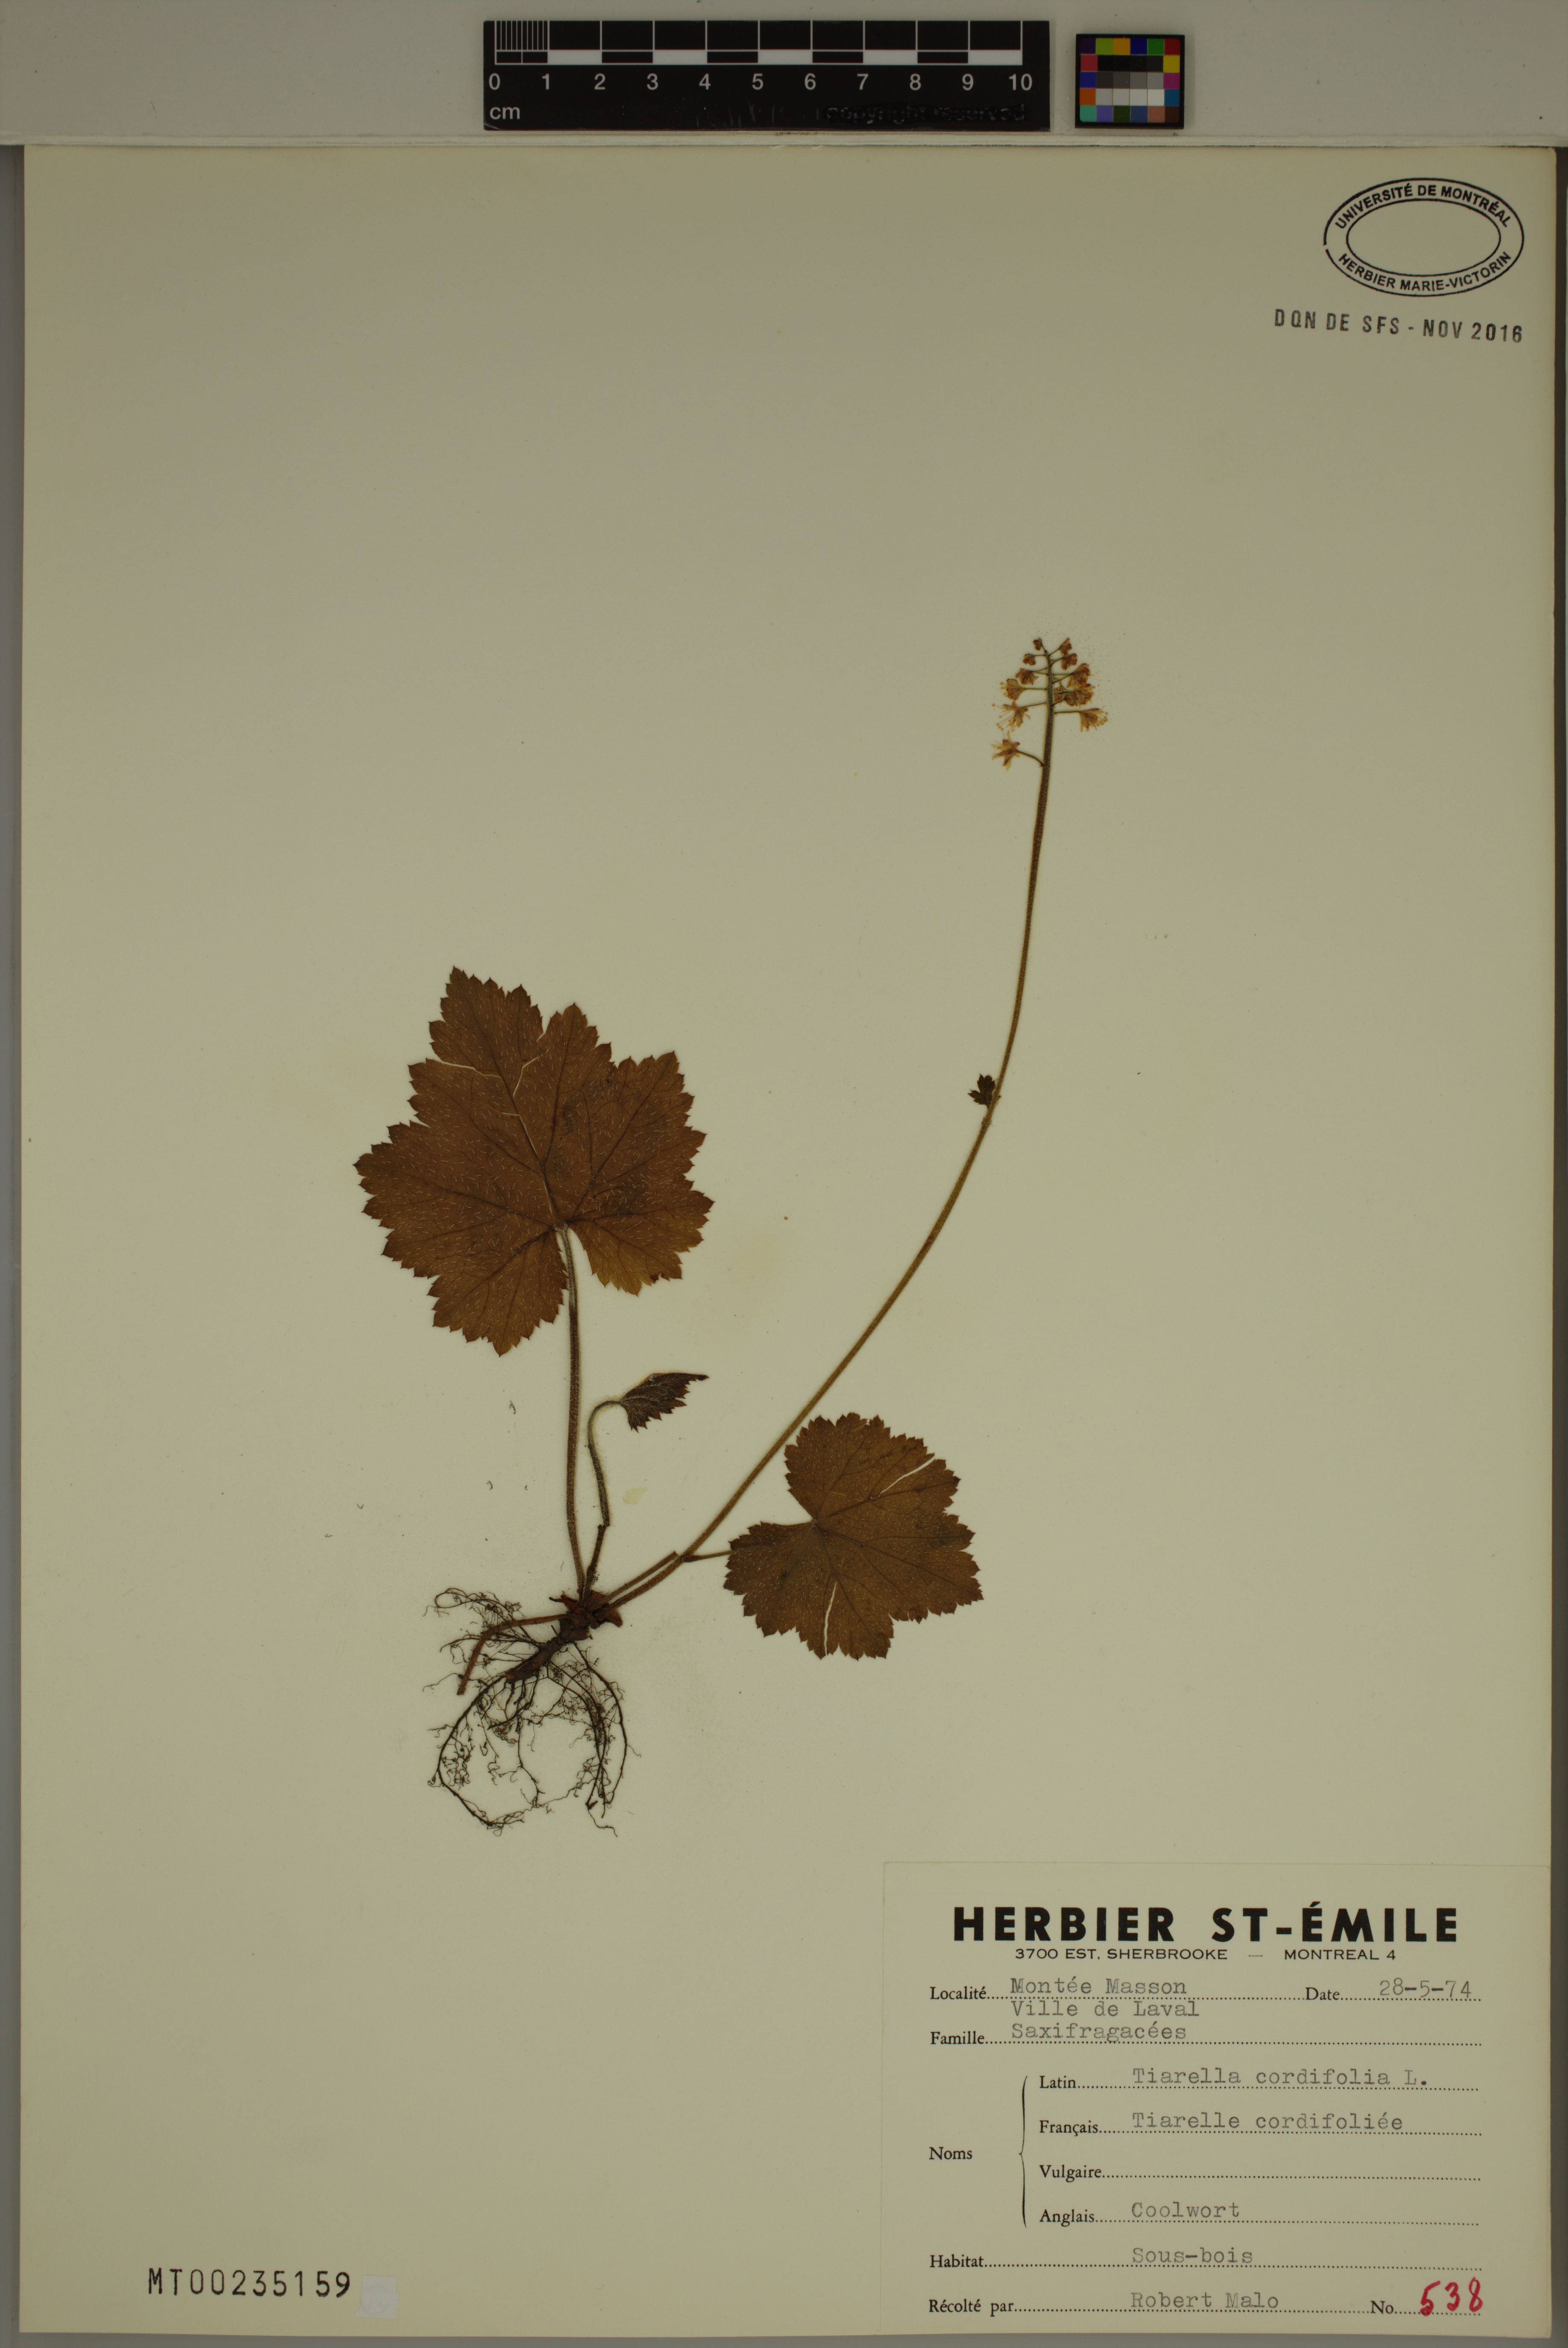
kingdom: Plantae
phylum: Tracheophyta
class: Magnoliopsida
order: Saxifragales
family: Saxifragaceae
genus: Tiarella
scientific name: Tiarella cordifolia
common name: Foamflower
